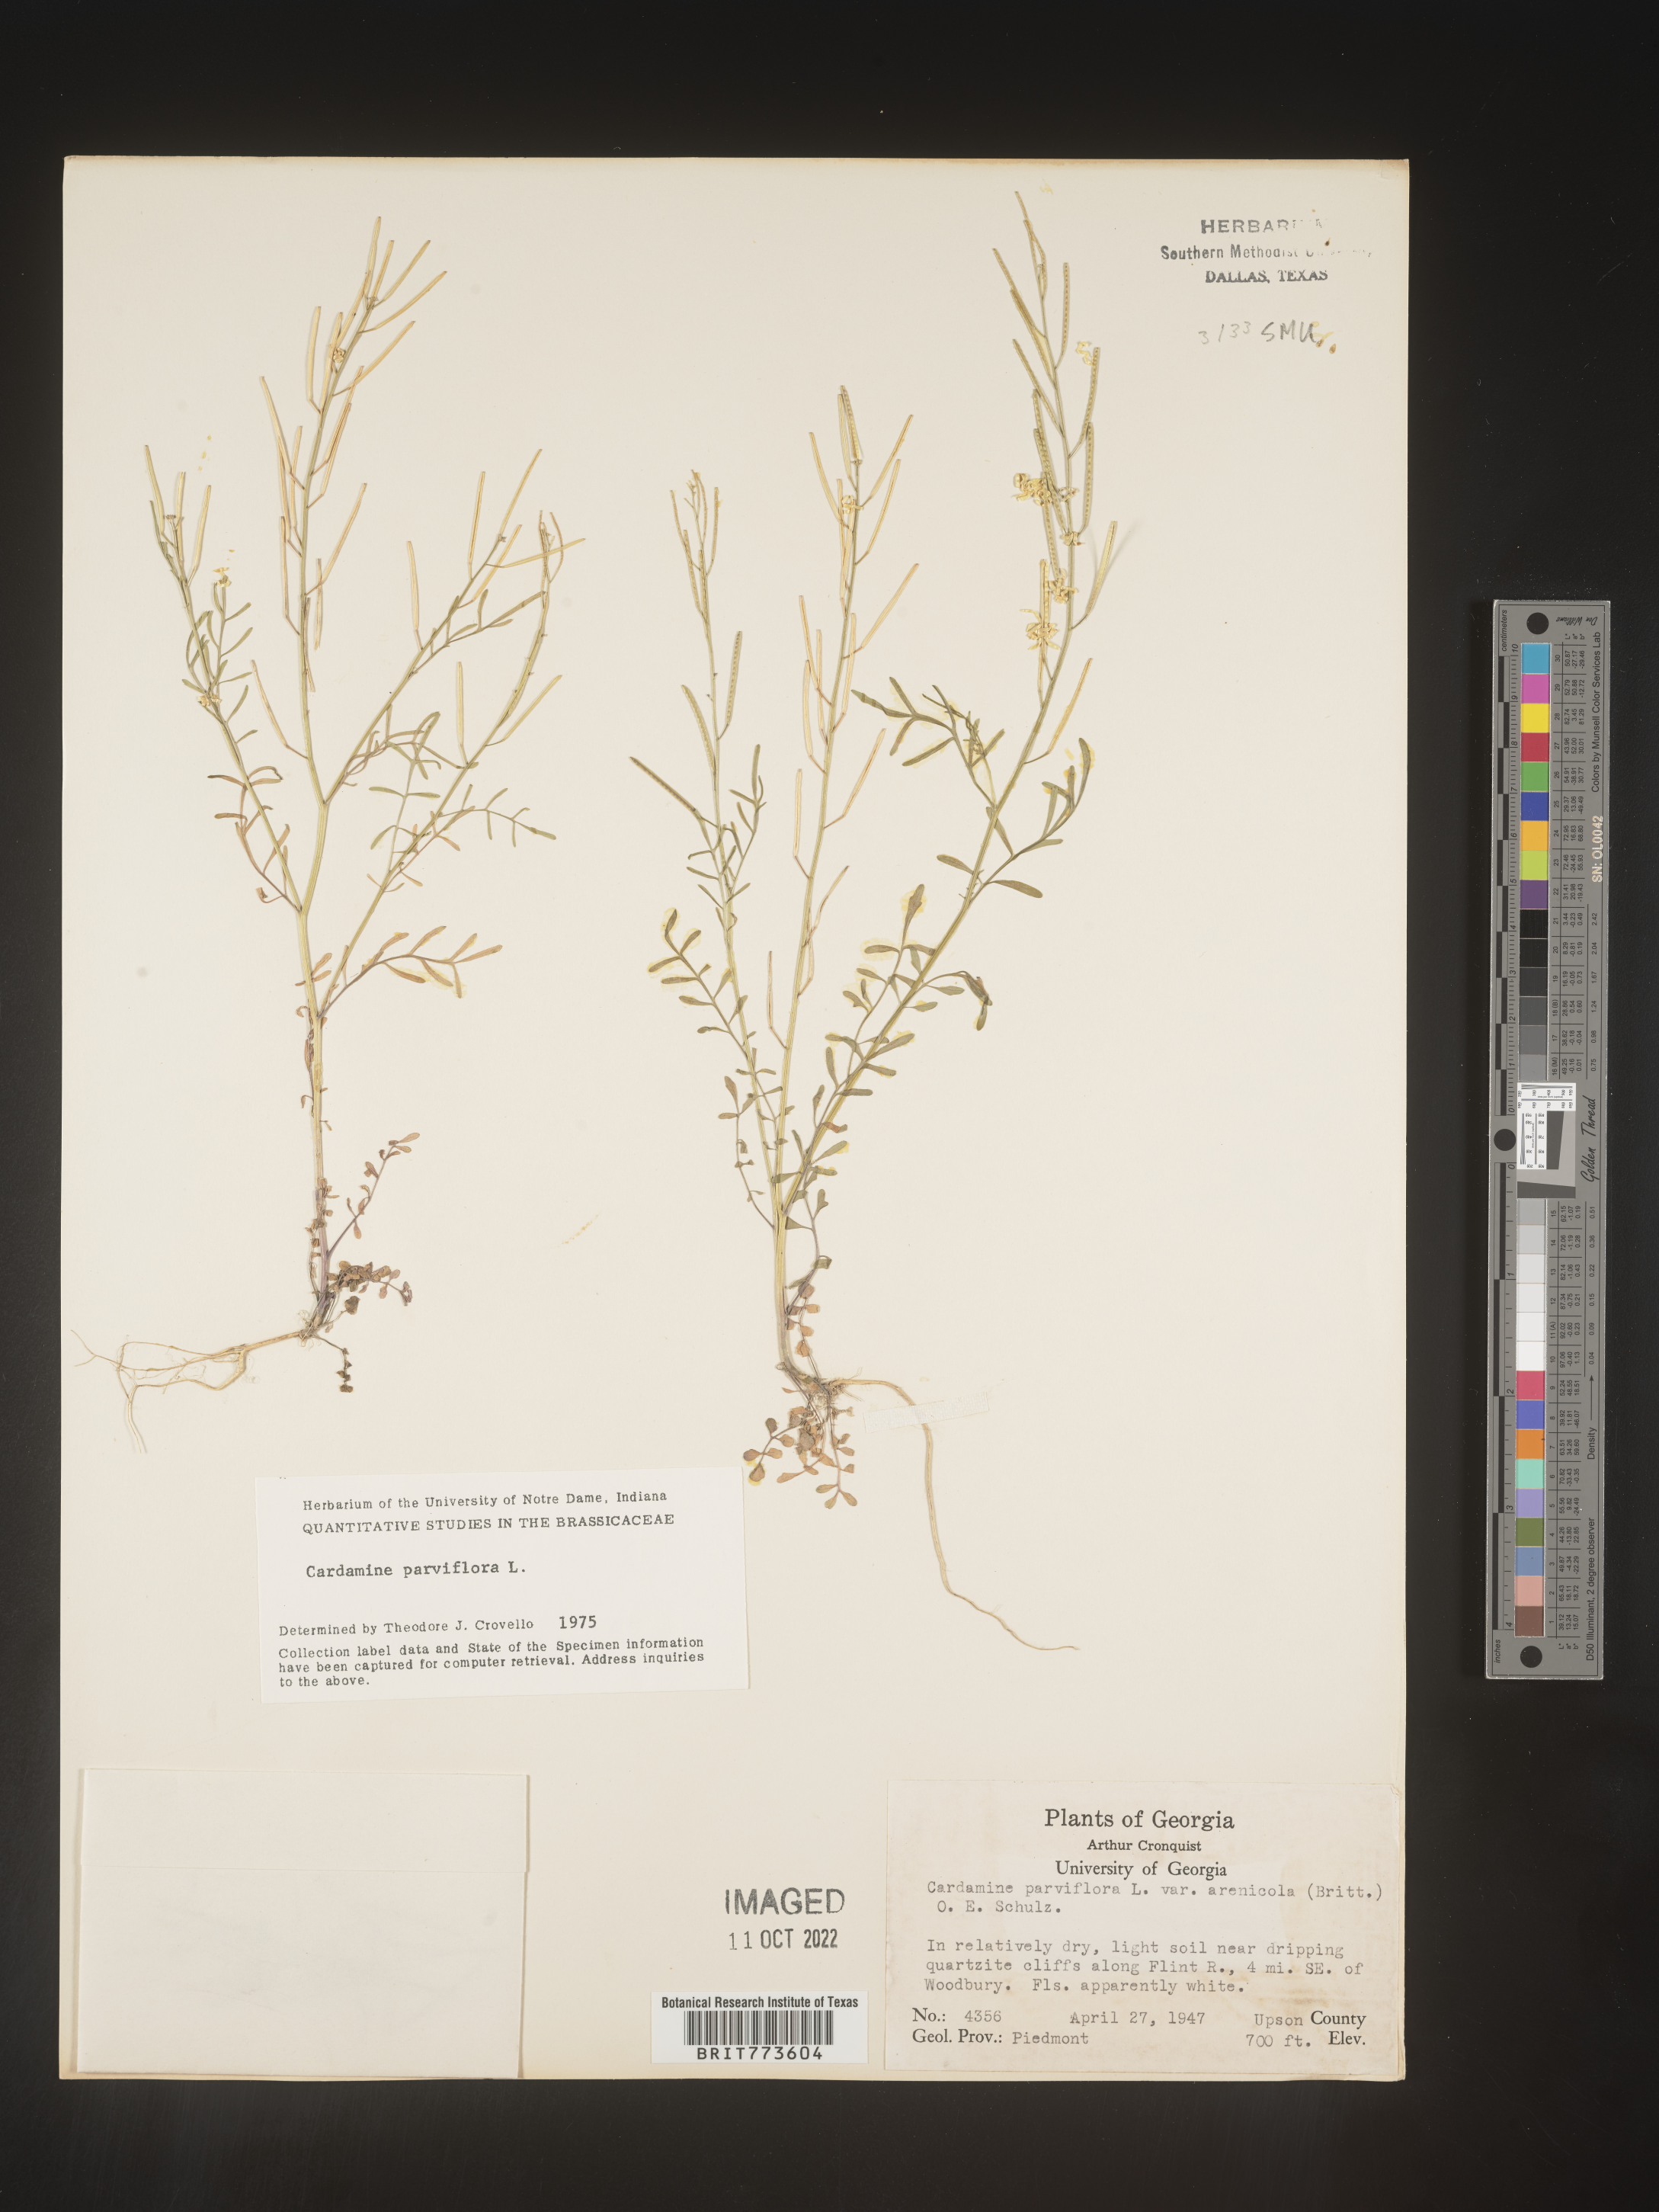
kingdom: Plantae
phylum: Tracheophyta
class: Magnoliopsida
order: Brassicales
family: Brassicaceae
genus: Cardamine
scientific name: Cardamine parviflora
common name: Sand bittercress
